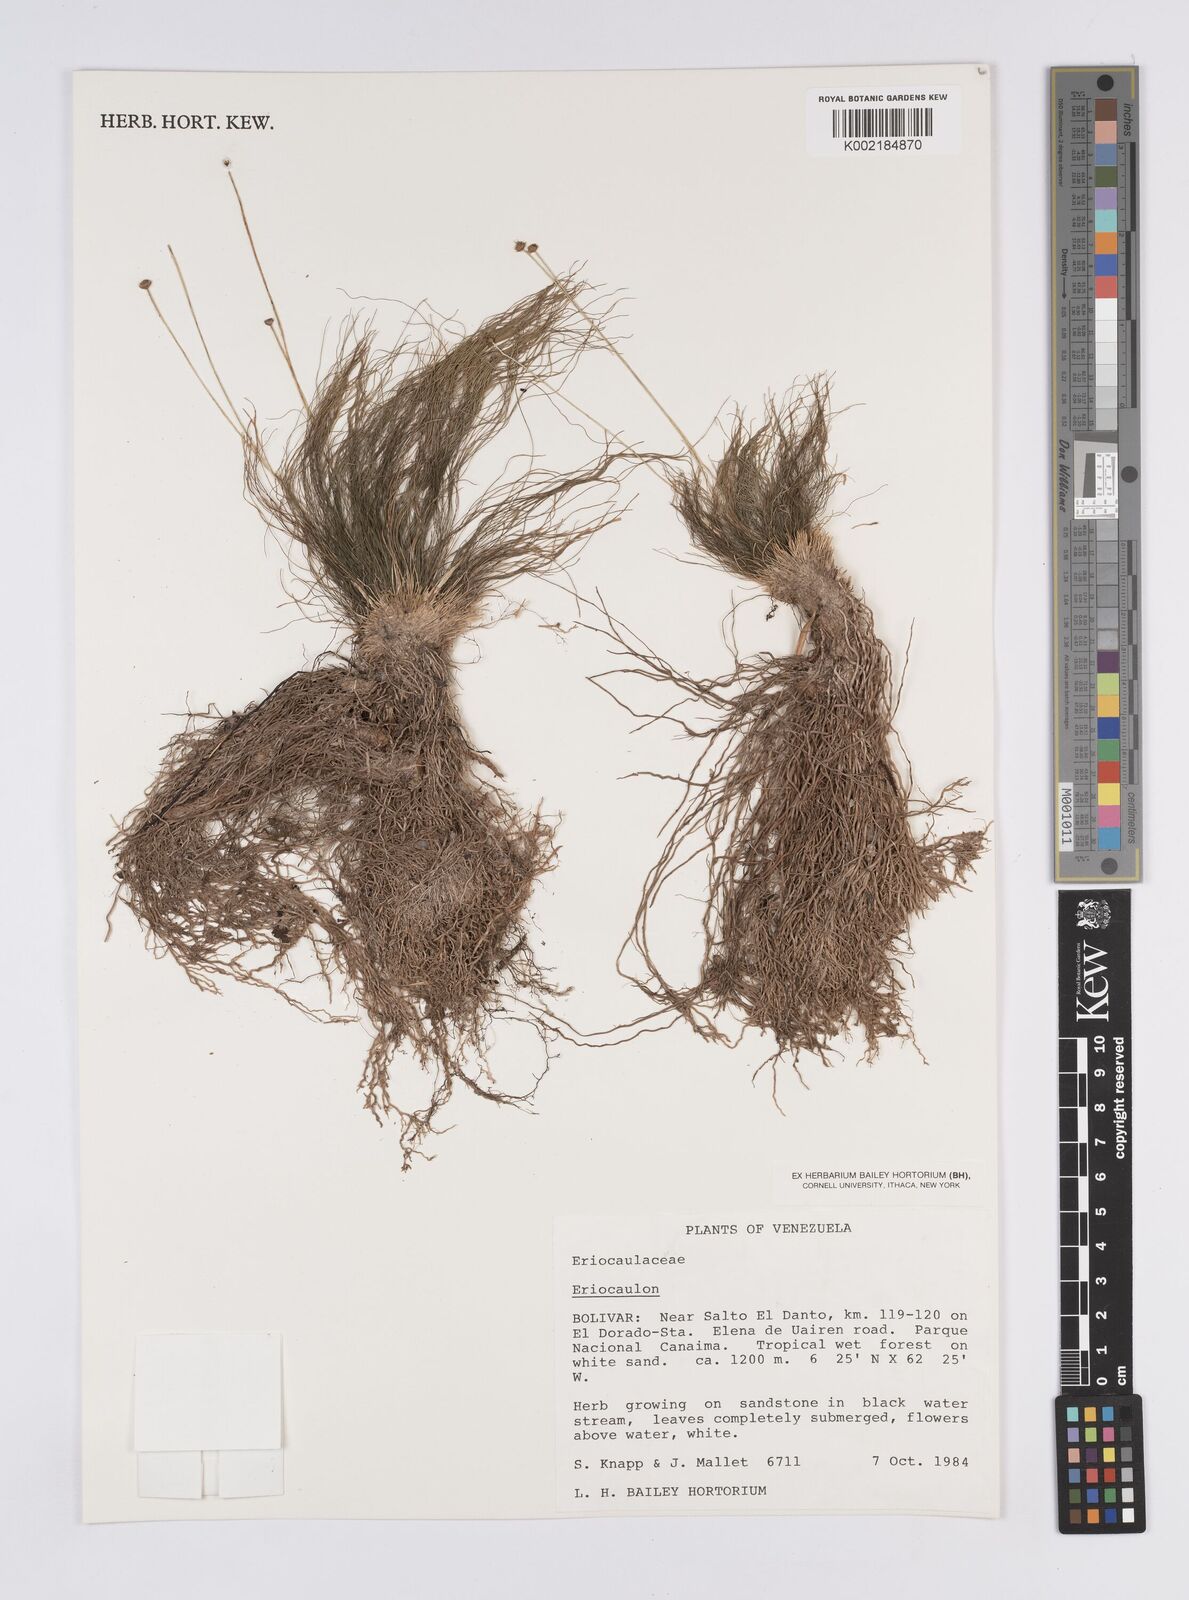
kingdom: Plantae
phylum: Tracheophyta
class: Liliopsida
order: Poales
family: Eriocaulaceae
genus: Eriocaulon
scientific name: Eriocaulon
